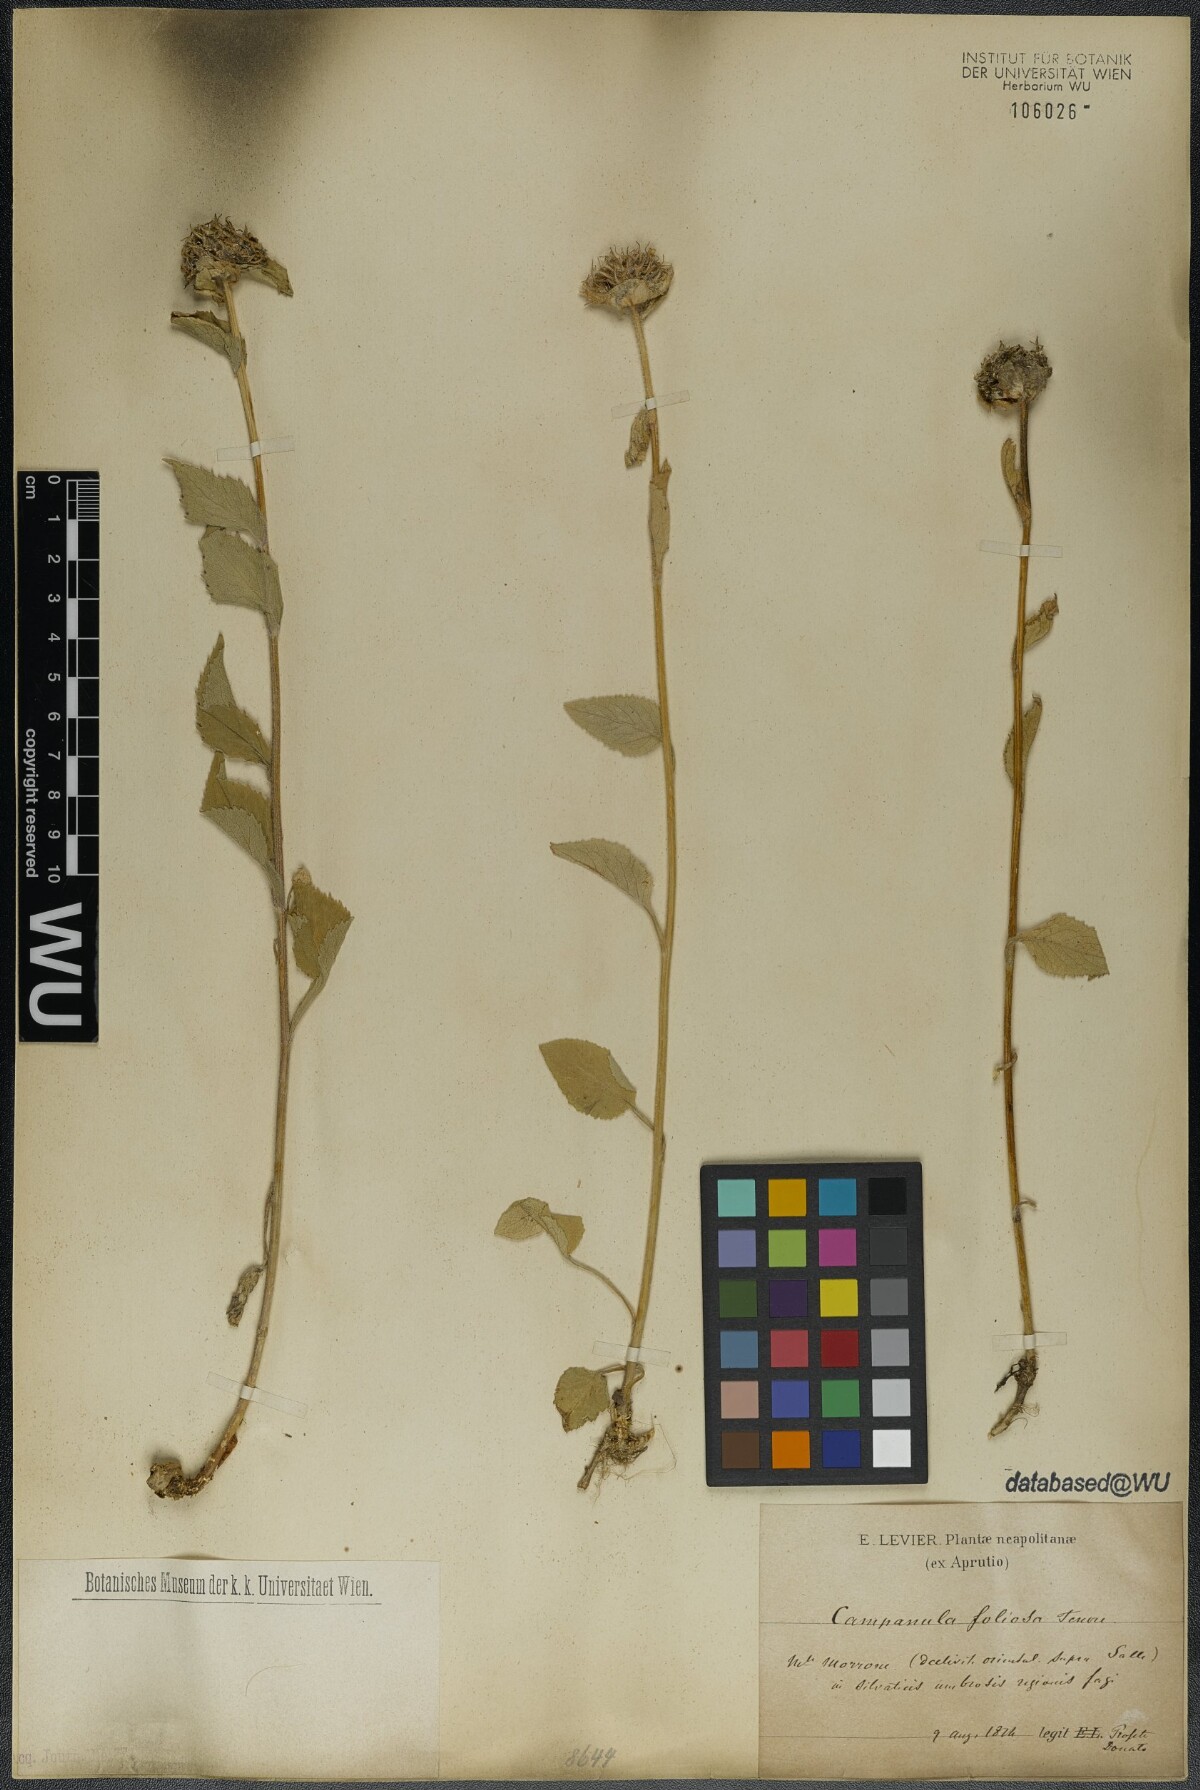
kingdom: Plantae
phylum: Tracheophyta
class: Magnoliopsida
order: Asterales
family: Campanulaceae
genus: Campanula
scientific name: Campanula foliosa
